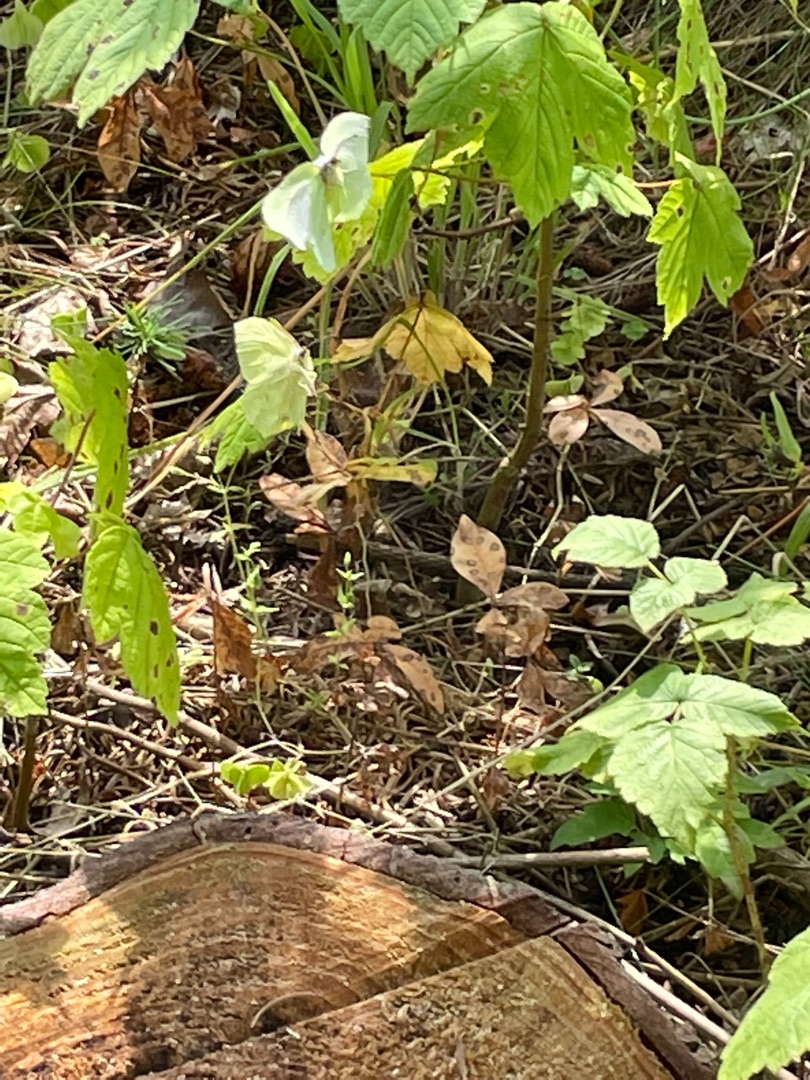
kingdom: Animalia
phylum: Arthropoda
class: Insecta
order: Lepidoptera
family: Pieridae
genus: Gonepteryx
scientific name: Gonepteryx rhamni
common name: Citronsommerfugl
